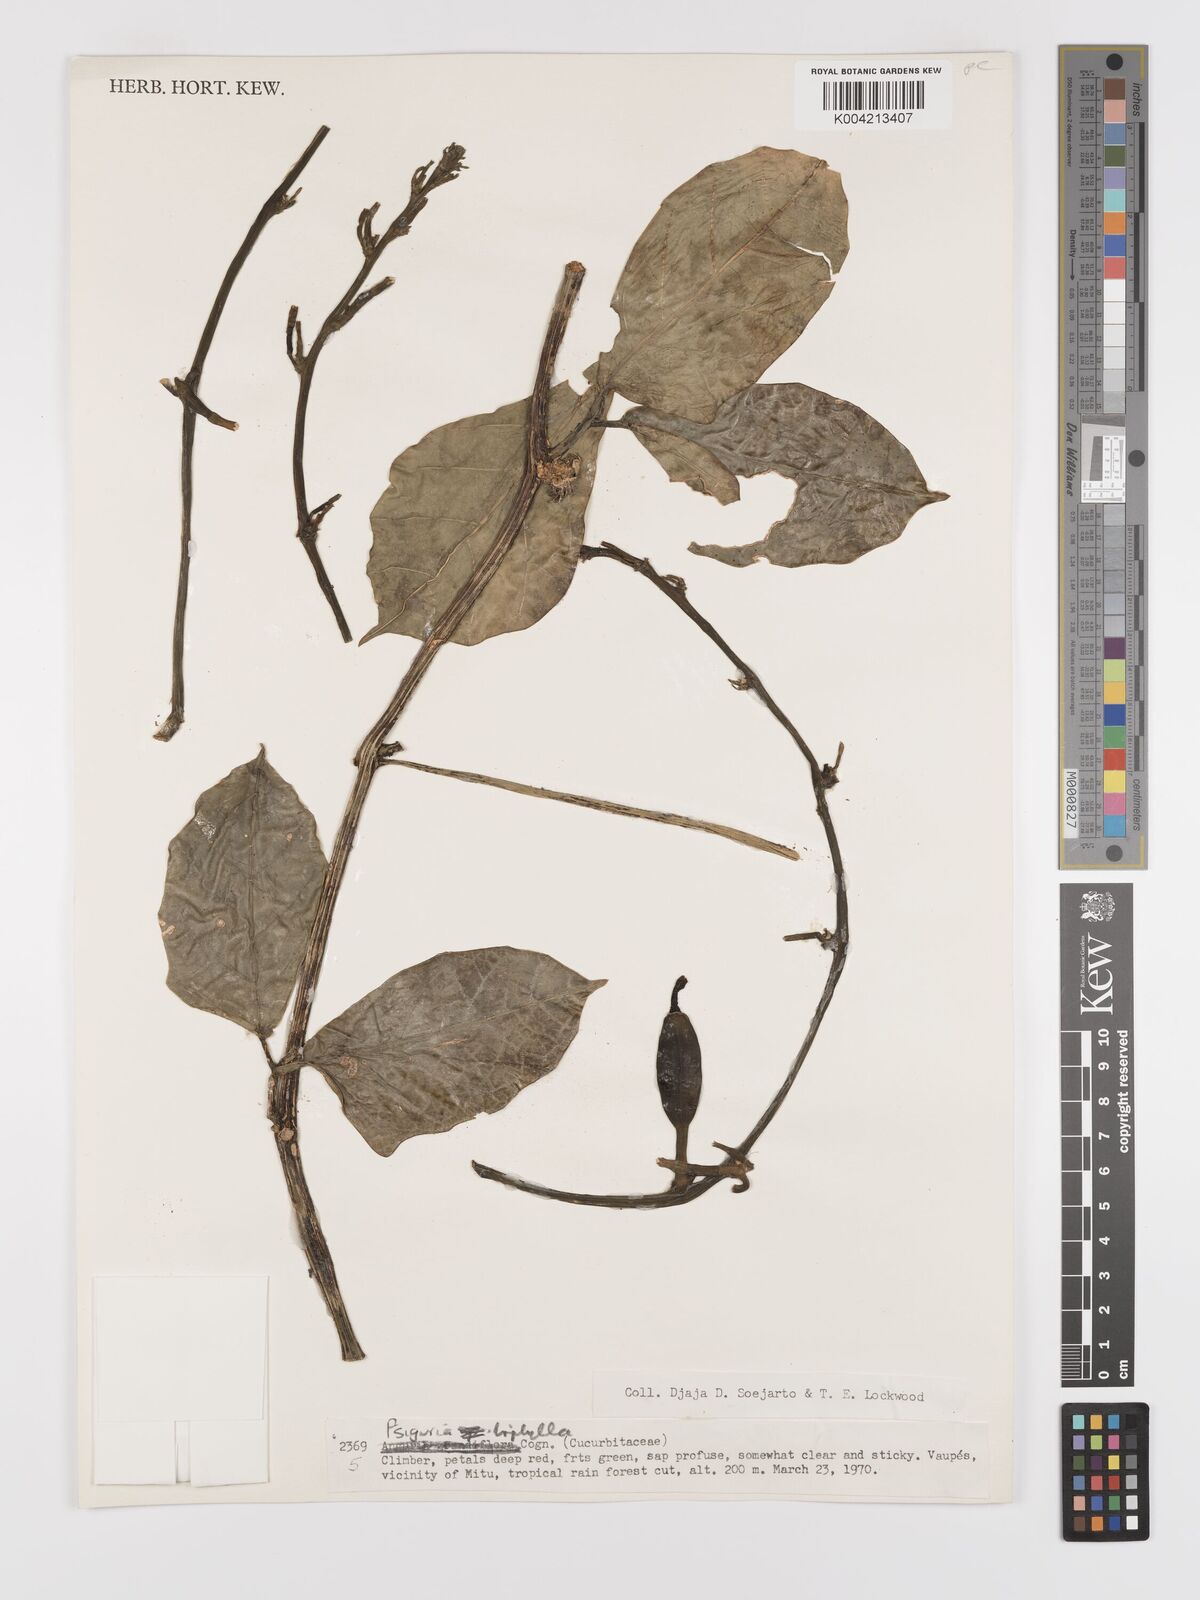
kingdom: Plantae
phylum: Tracheophyta
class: Magnoliopsida
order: Cucurbitales
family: Cucurbitaceae
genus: Psiguria
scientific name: Psiguria triphylla
